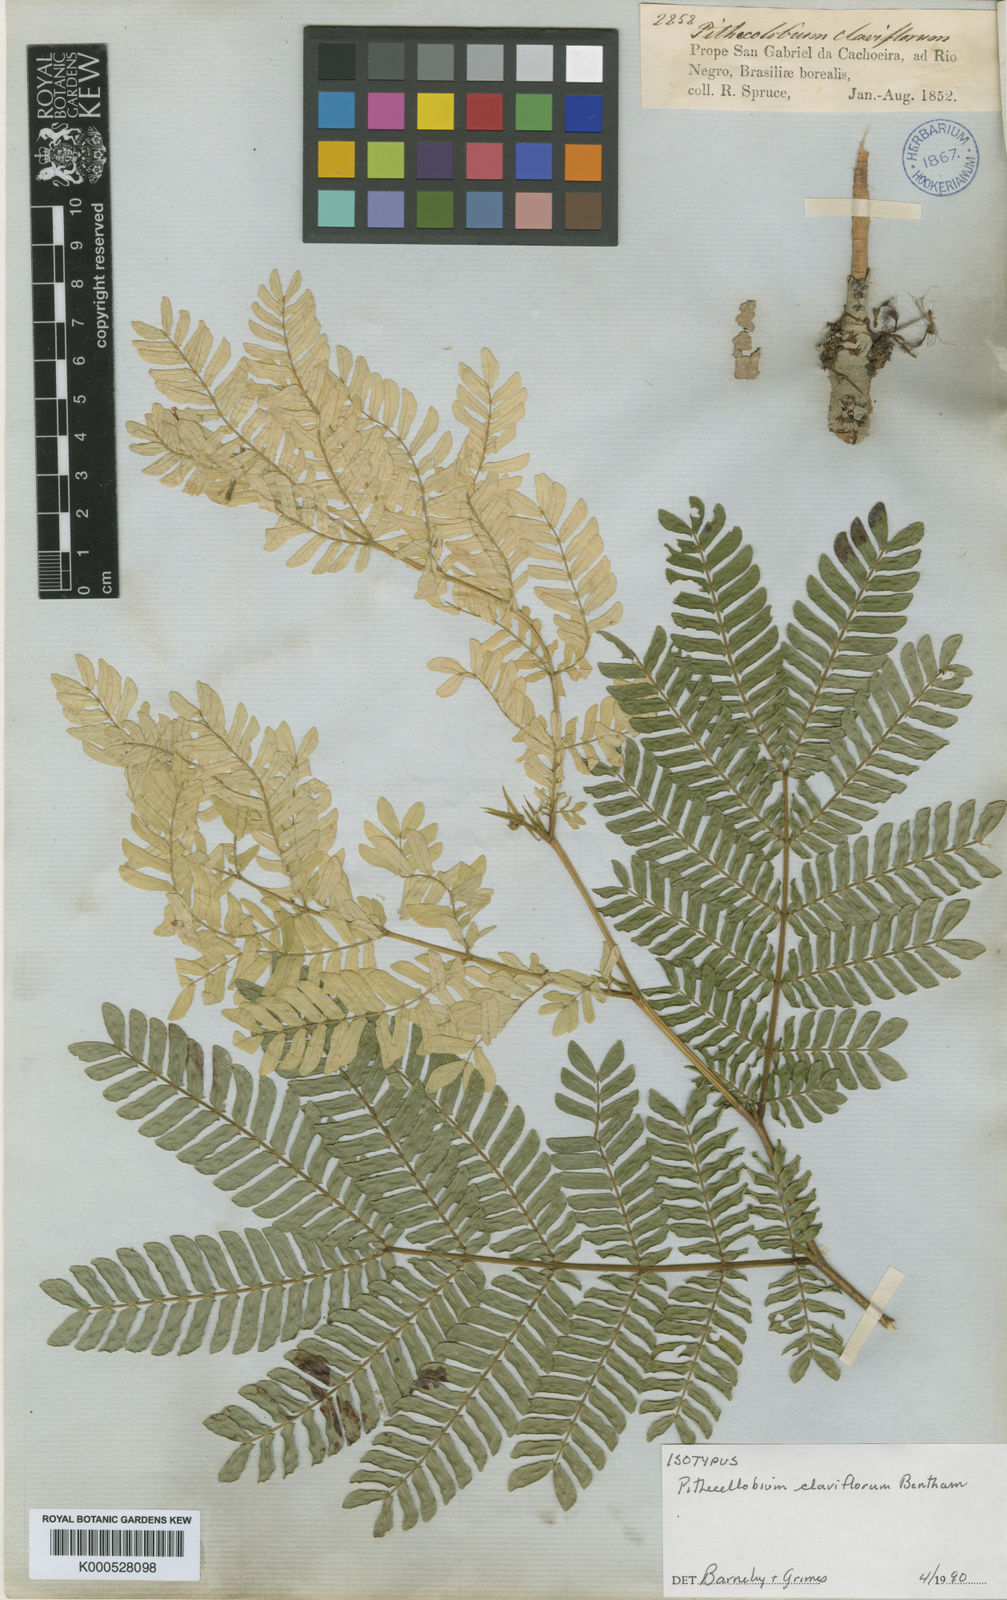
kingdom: Plantae
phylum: Tracheophyta
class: Magnoliopsida
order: Fabales
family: Fabaceae
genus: Zygia
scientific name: Zygia claviflora
